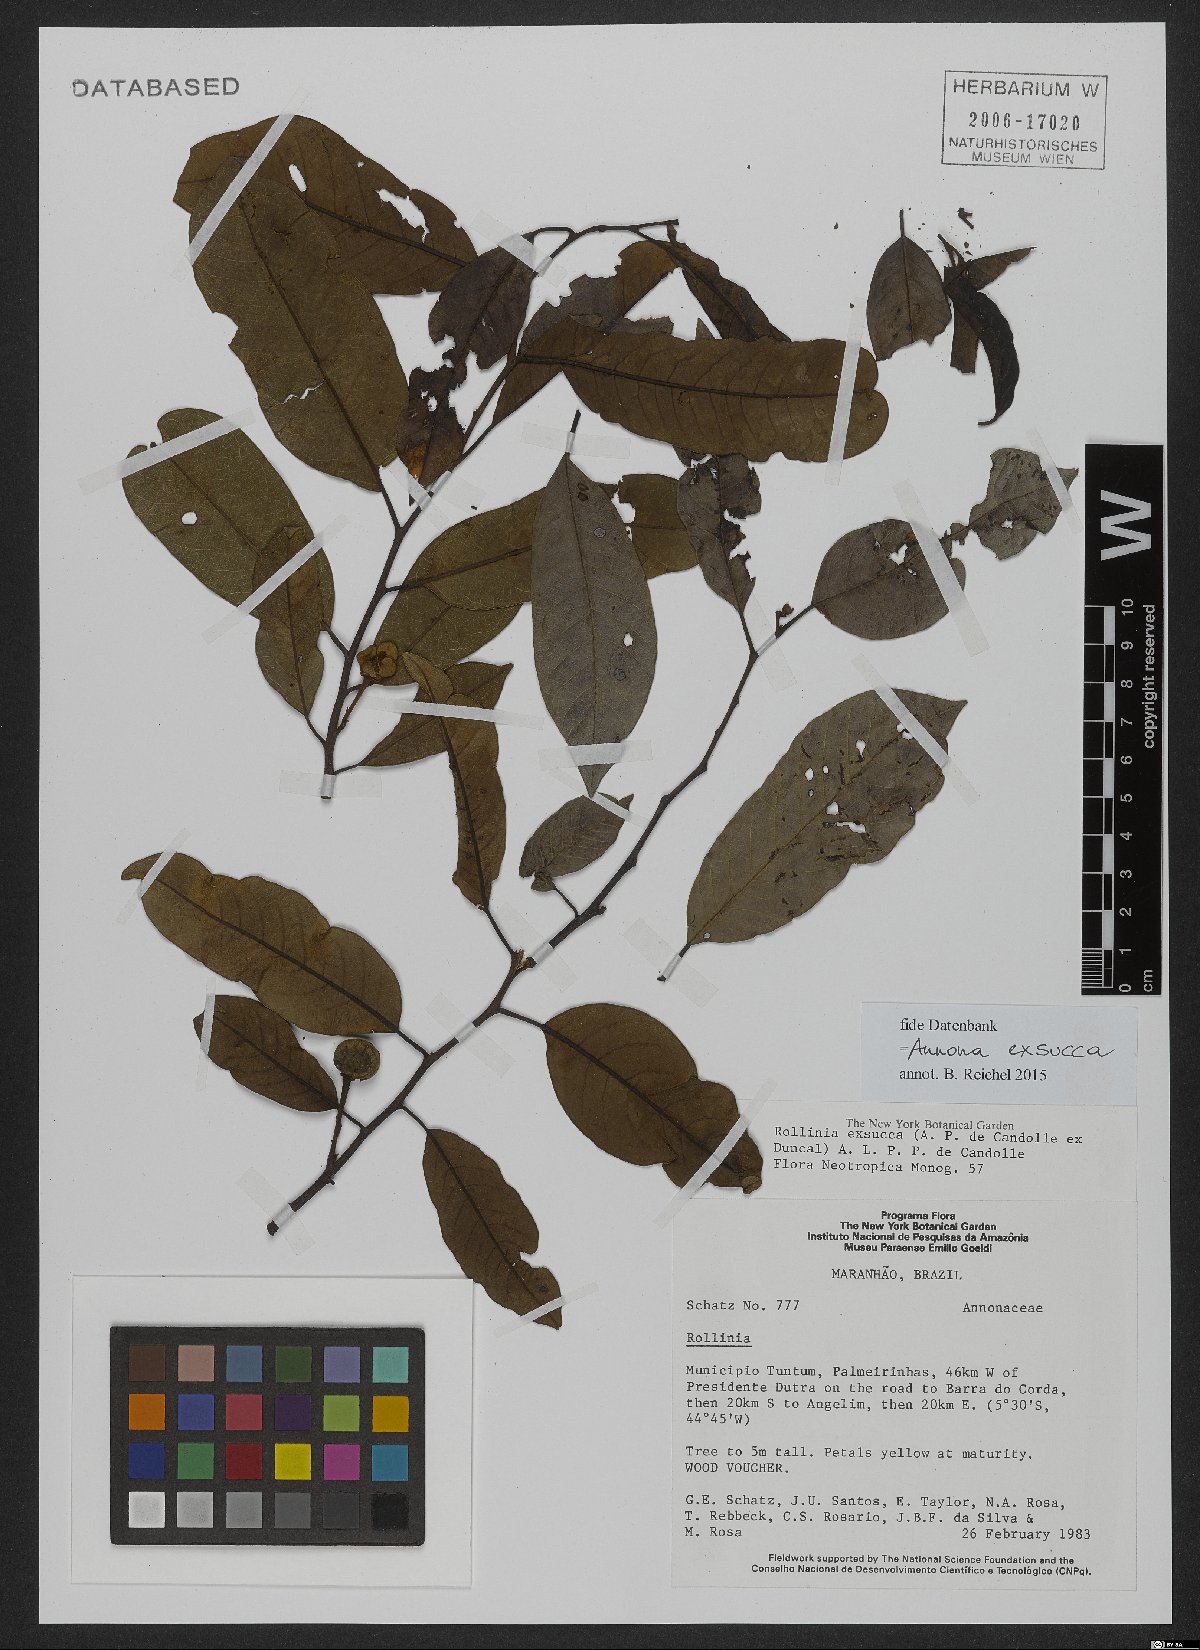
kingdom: Plantae
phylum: Tracheophyta
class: Magnoliopsida
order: Magnoliales
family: Annonaceae
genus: Annona
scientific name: Annona exsucca
